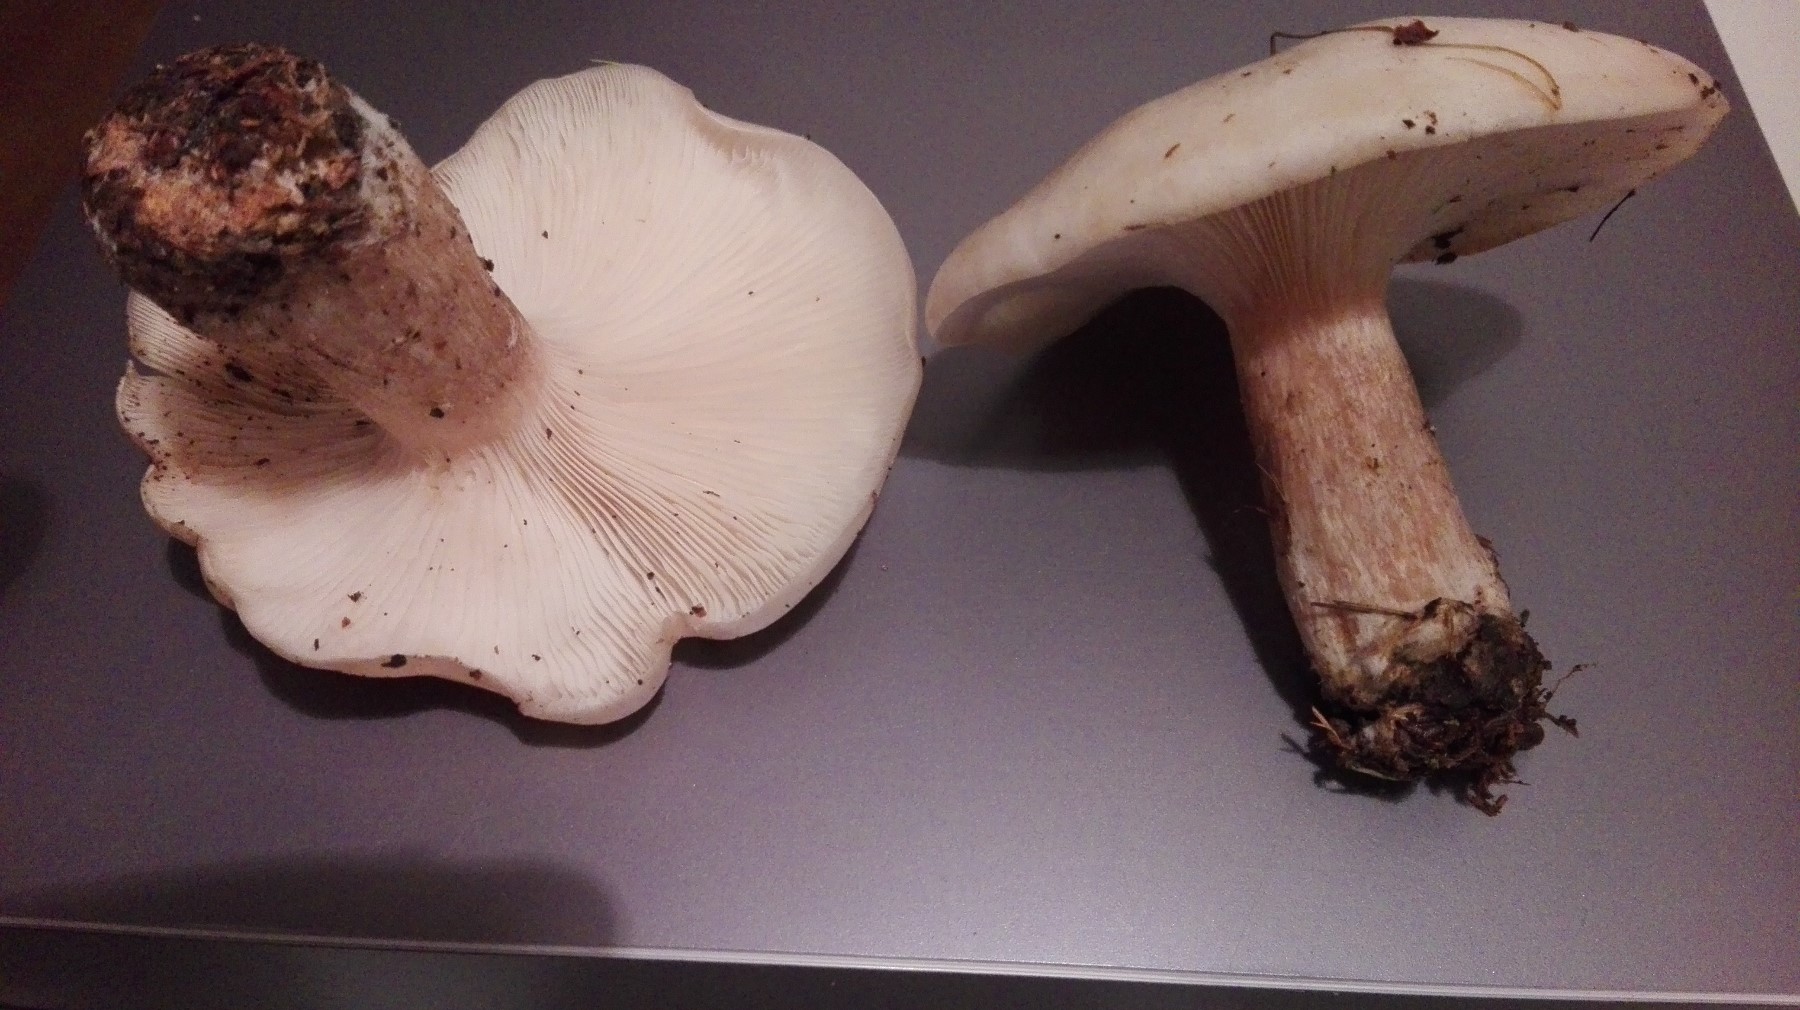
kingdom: Fungi
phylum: Basidiomycota
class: Agaricomycetes
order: Agaricales
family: Tricholomataceae
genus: Lepista
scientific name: Lepista personata
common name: bleg hekseringshat
